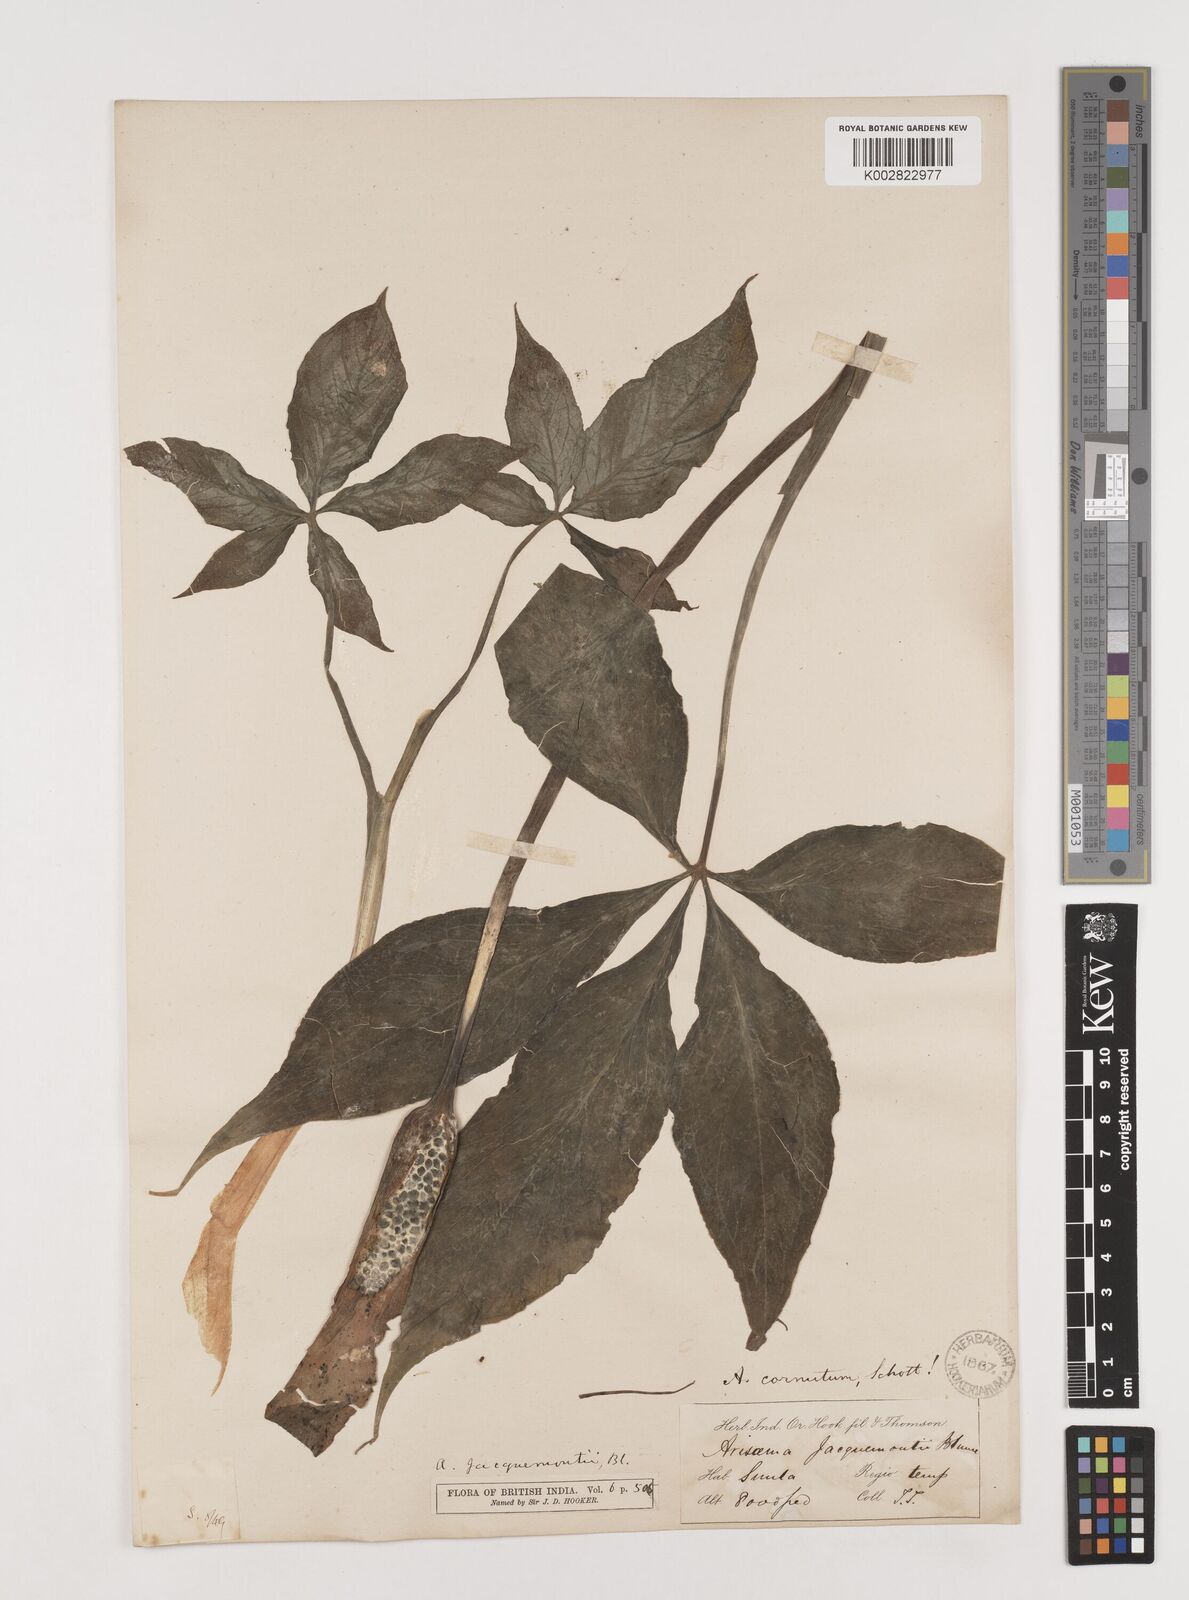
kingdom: Plantae
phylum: Tracheophyta
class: Liliopsida
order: Alismatales
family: Araceae
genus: Arisaema
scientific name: Arisaema jacquemontii
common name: Jacquemont's cobra-lily
